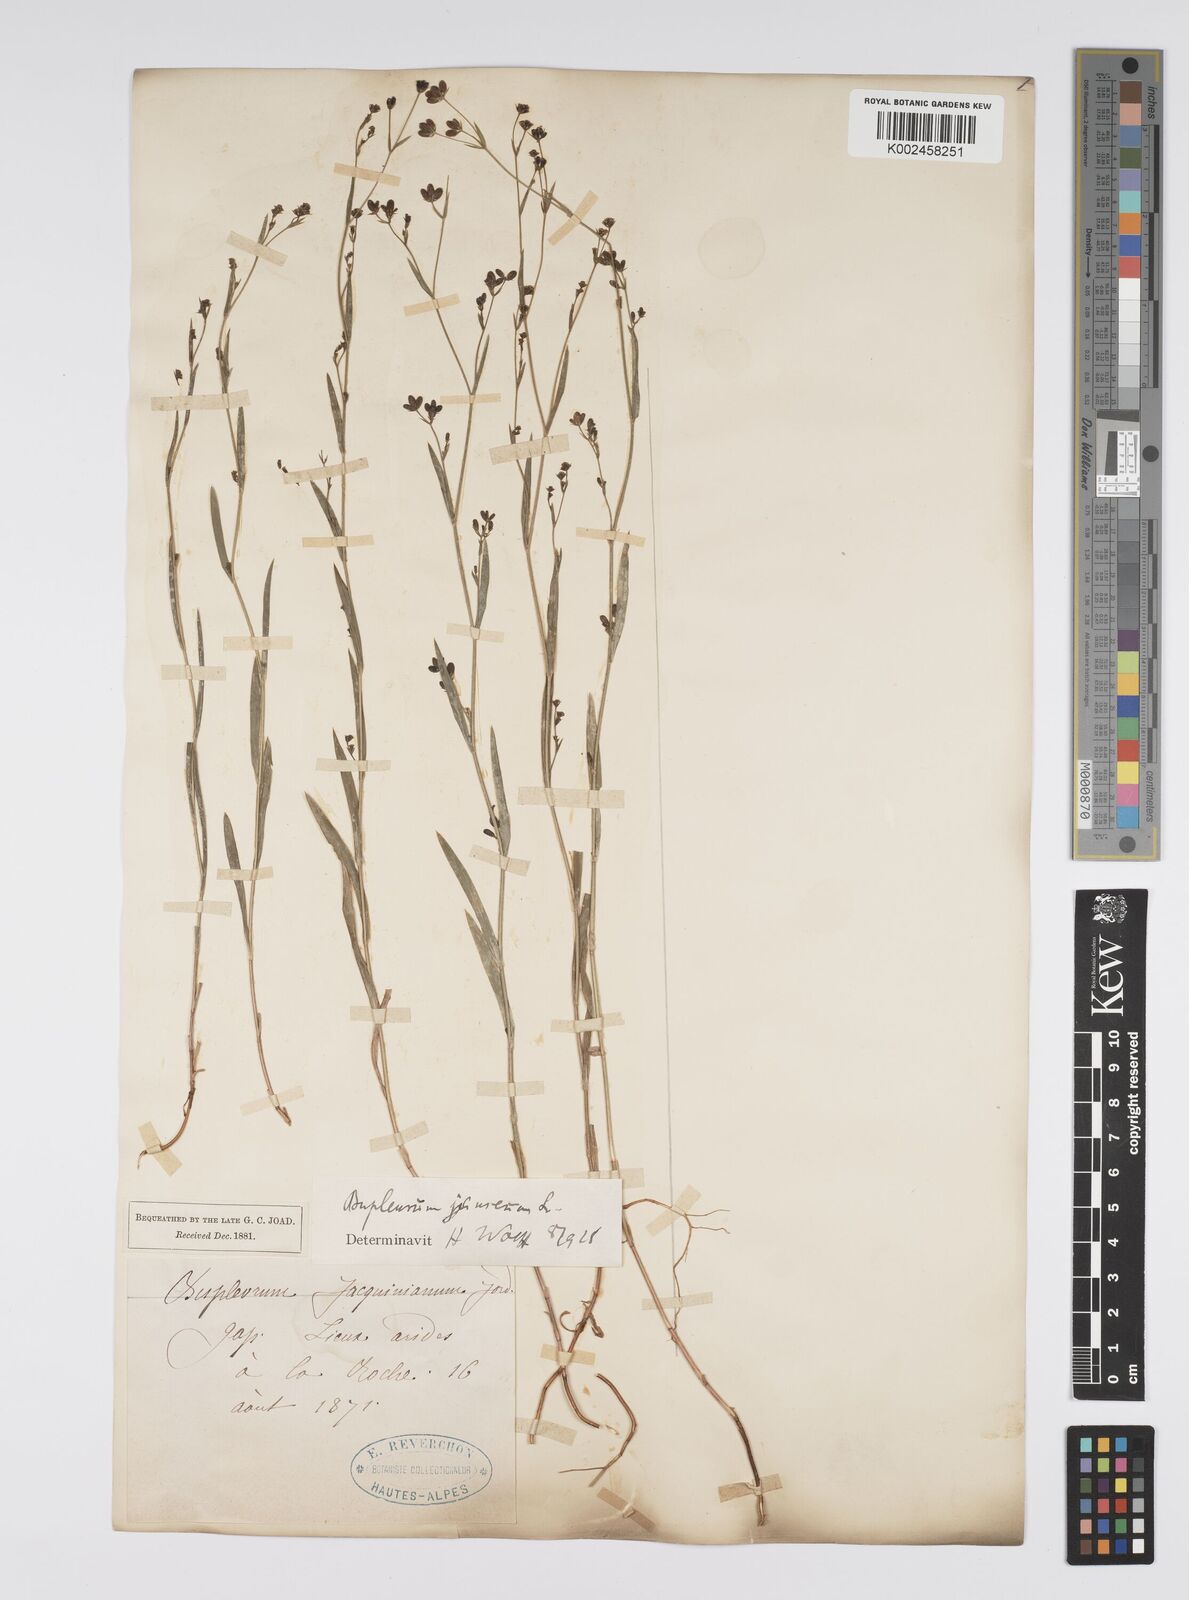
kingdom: Plantae
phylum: Tracheophyta
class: Magnoliopsida
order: Apiales
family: Apiaceae
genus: Bupleurum
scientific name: Bupleurum praealtum
